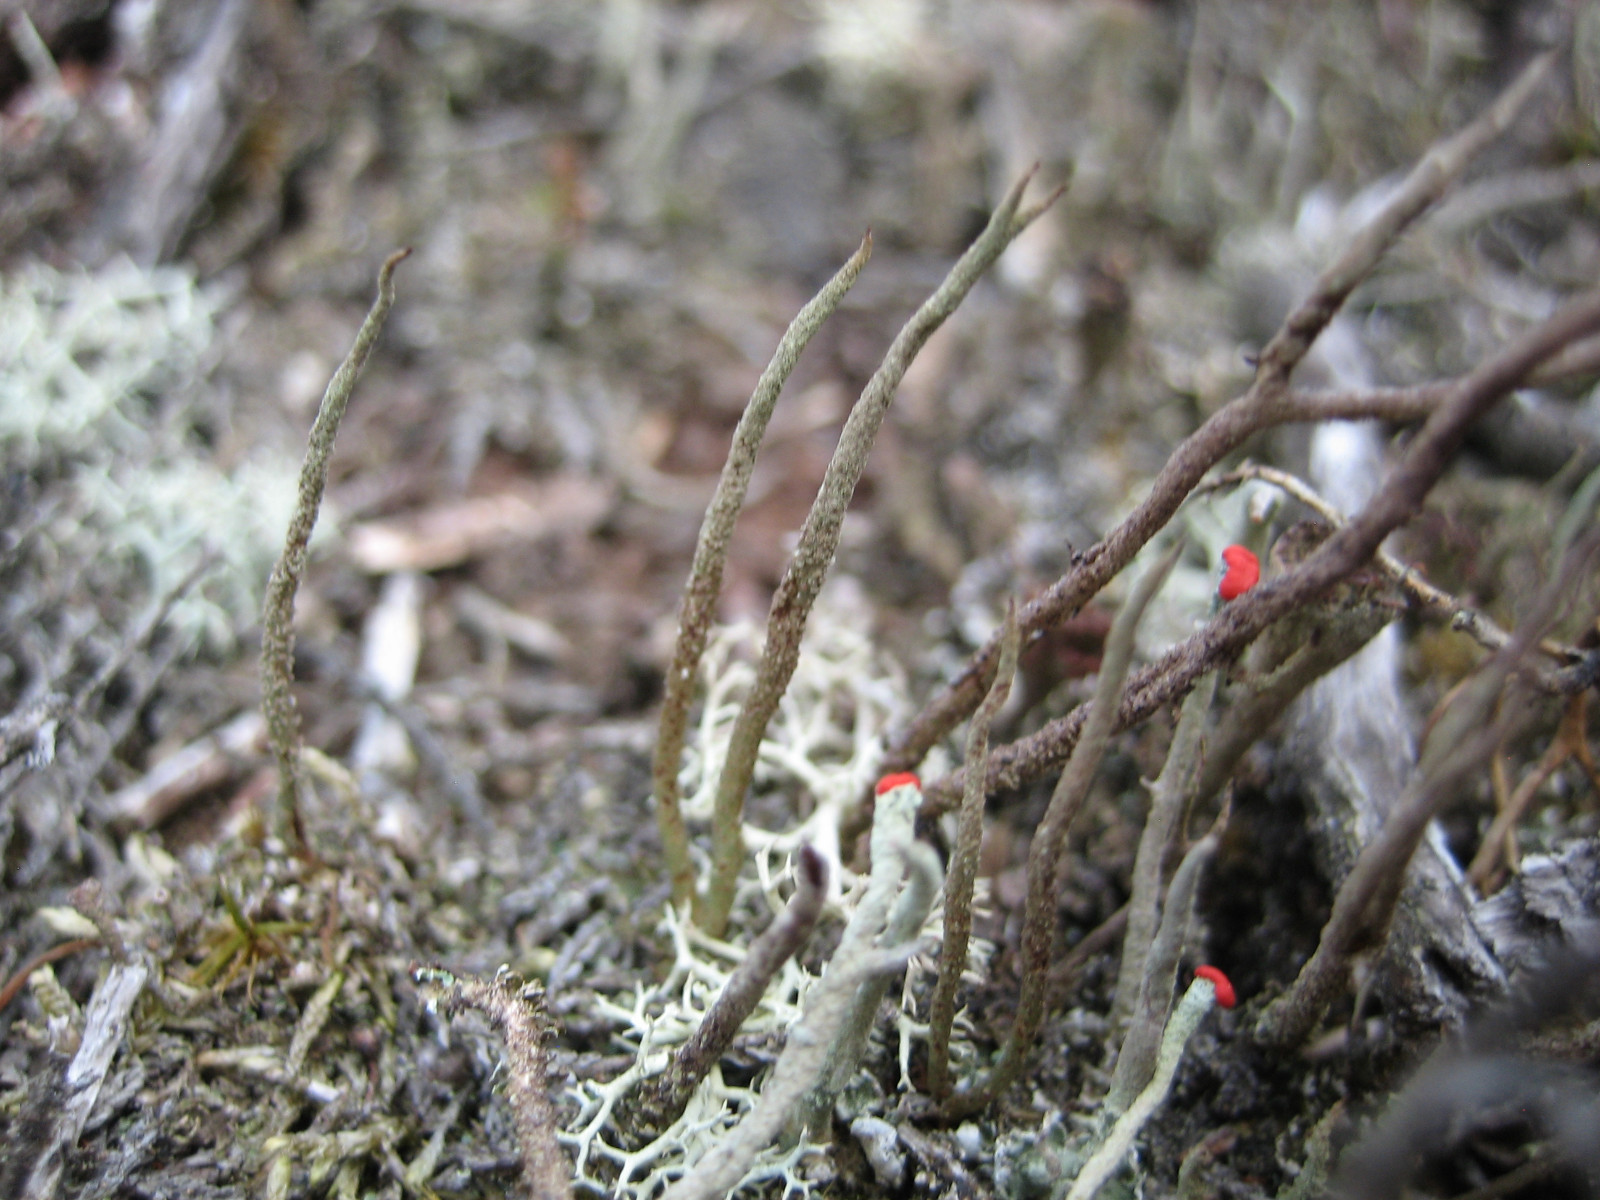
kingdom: Fungi
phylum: Ascomycota
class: Lecanoromycetes
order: Lecanorales
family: Cladoniaceae
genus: Cladonia
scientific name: Cladonia cornuta
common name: syl-bægerlav
